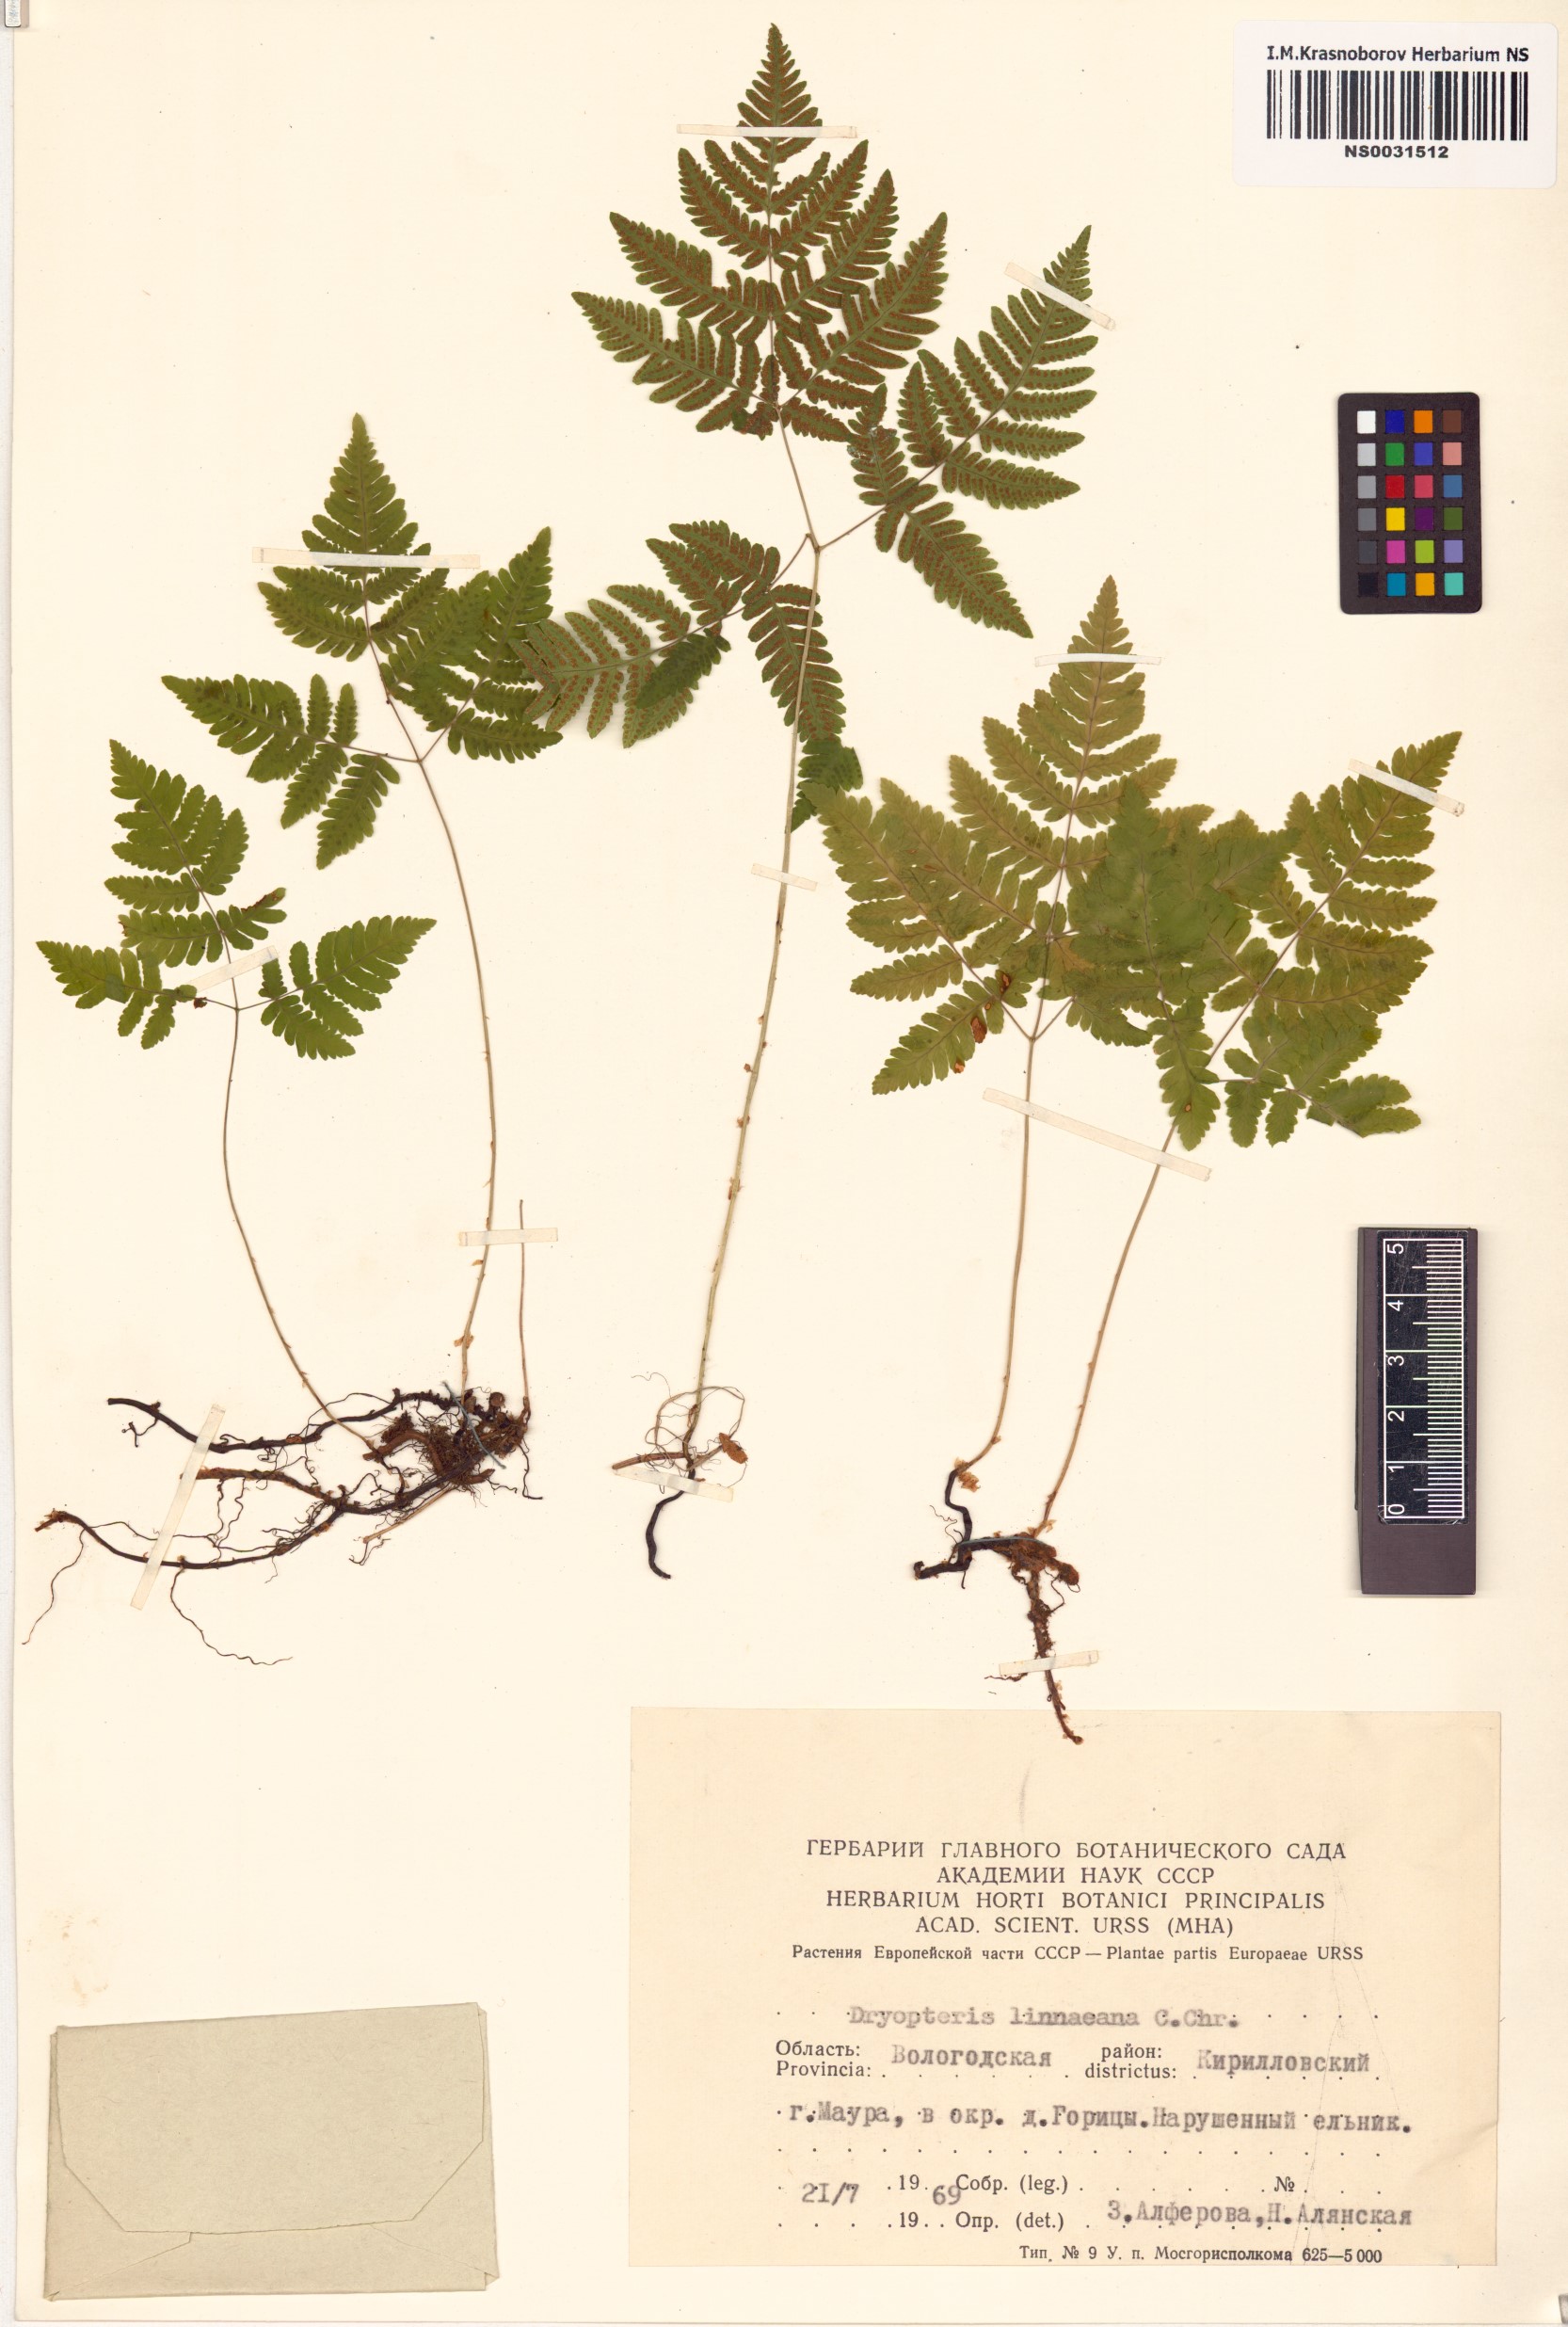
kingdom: Plantae
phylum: Tracheophyta
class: Polypodiopsida
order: Polypodiales
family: Cystopteridaceae
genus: Gymnocarpium
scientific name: Gymnocarpium dryopteris
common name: Oak fern
